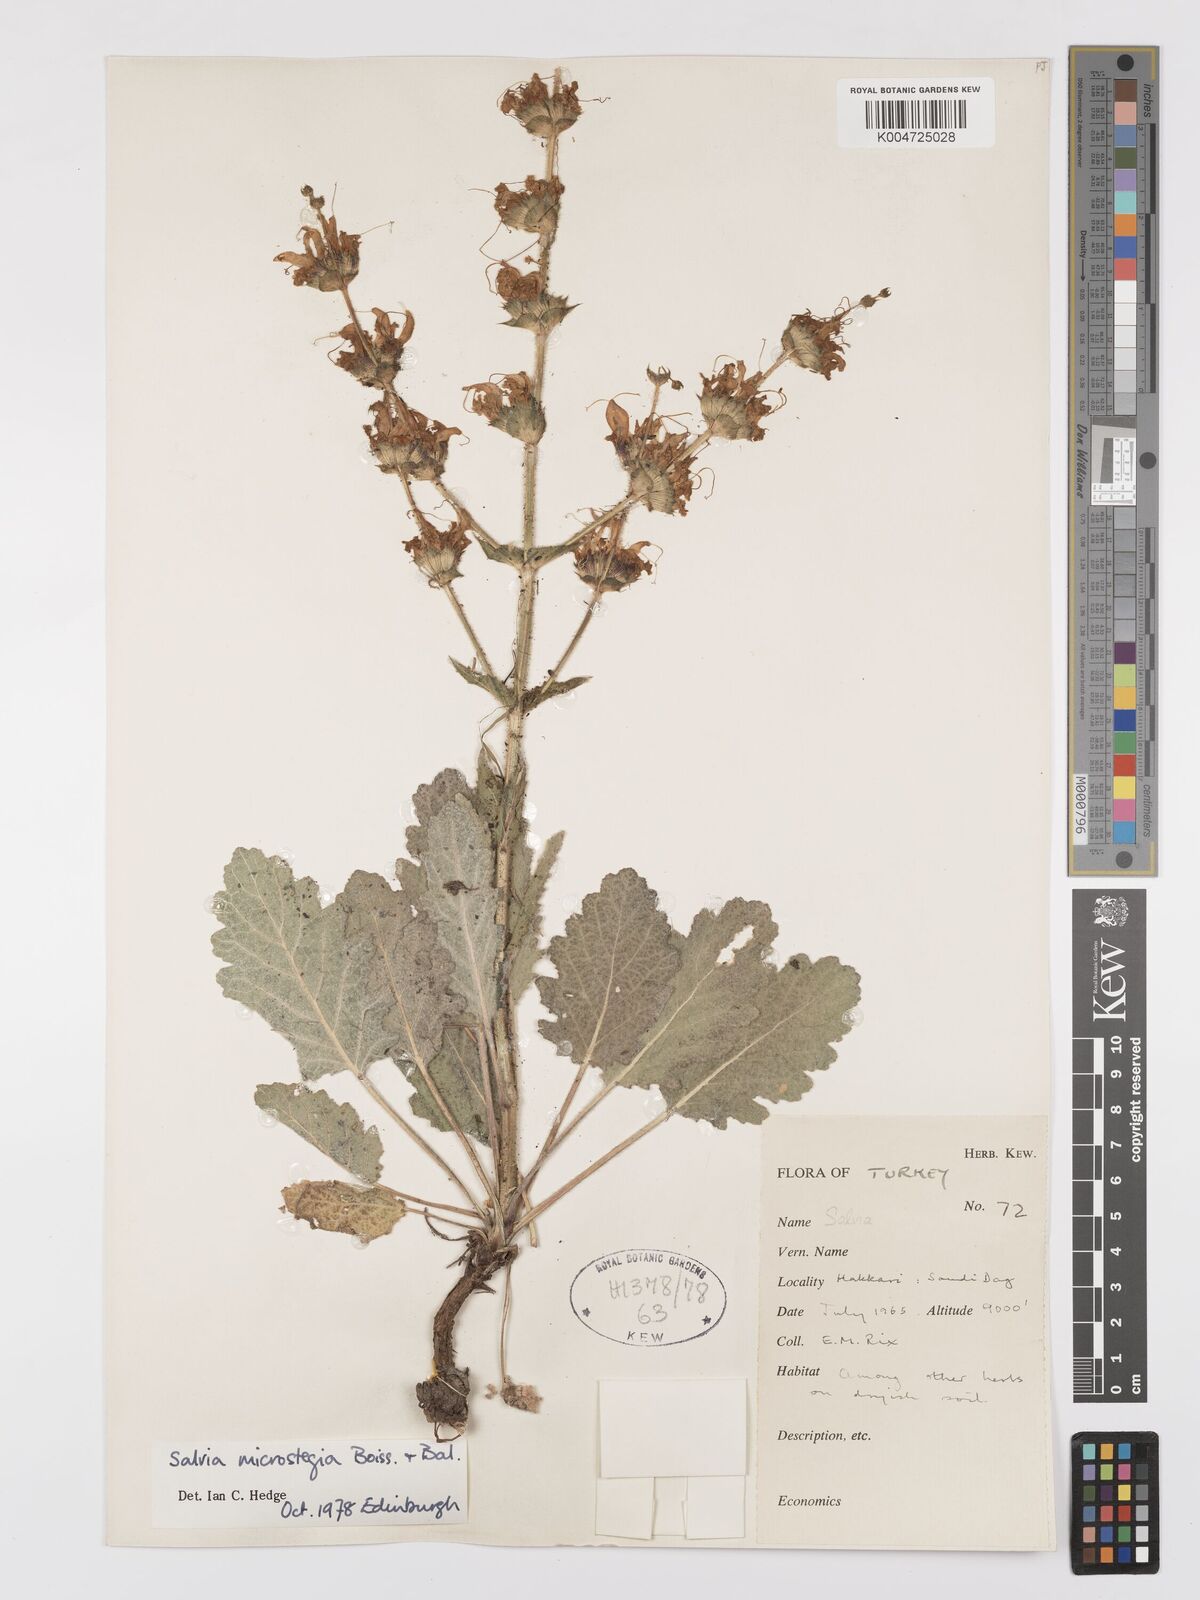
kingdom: Plantae
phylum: Tracheophyta
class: Magnoliopsida
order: Lamiales
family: Lamiaceae
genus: Salvia
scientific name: Salvia microstegia
